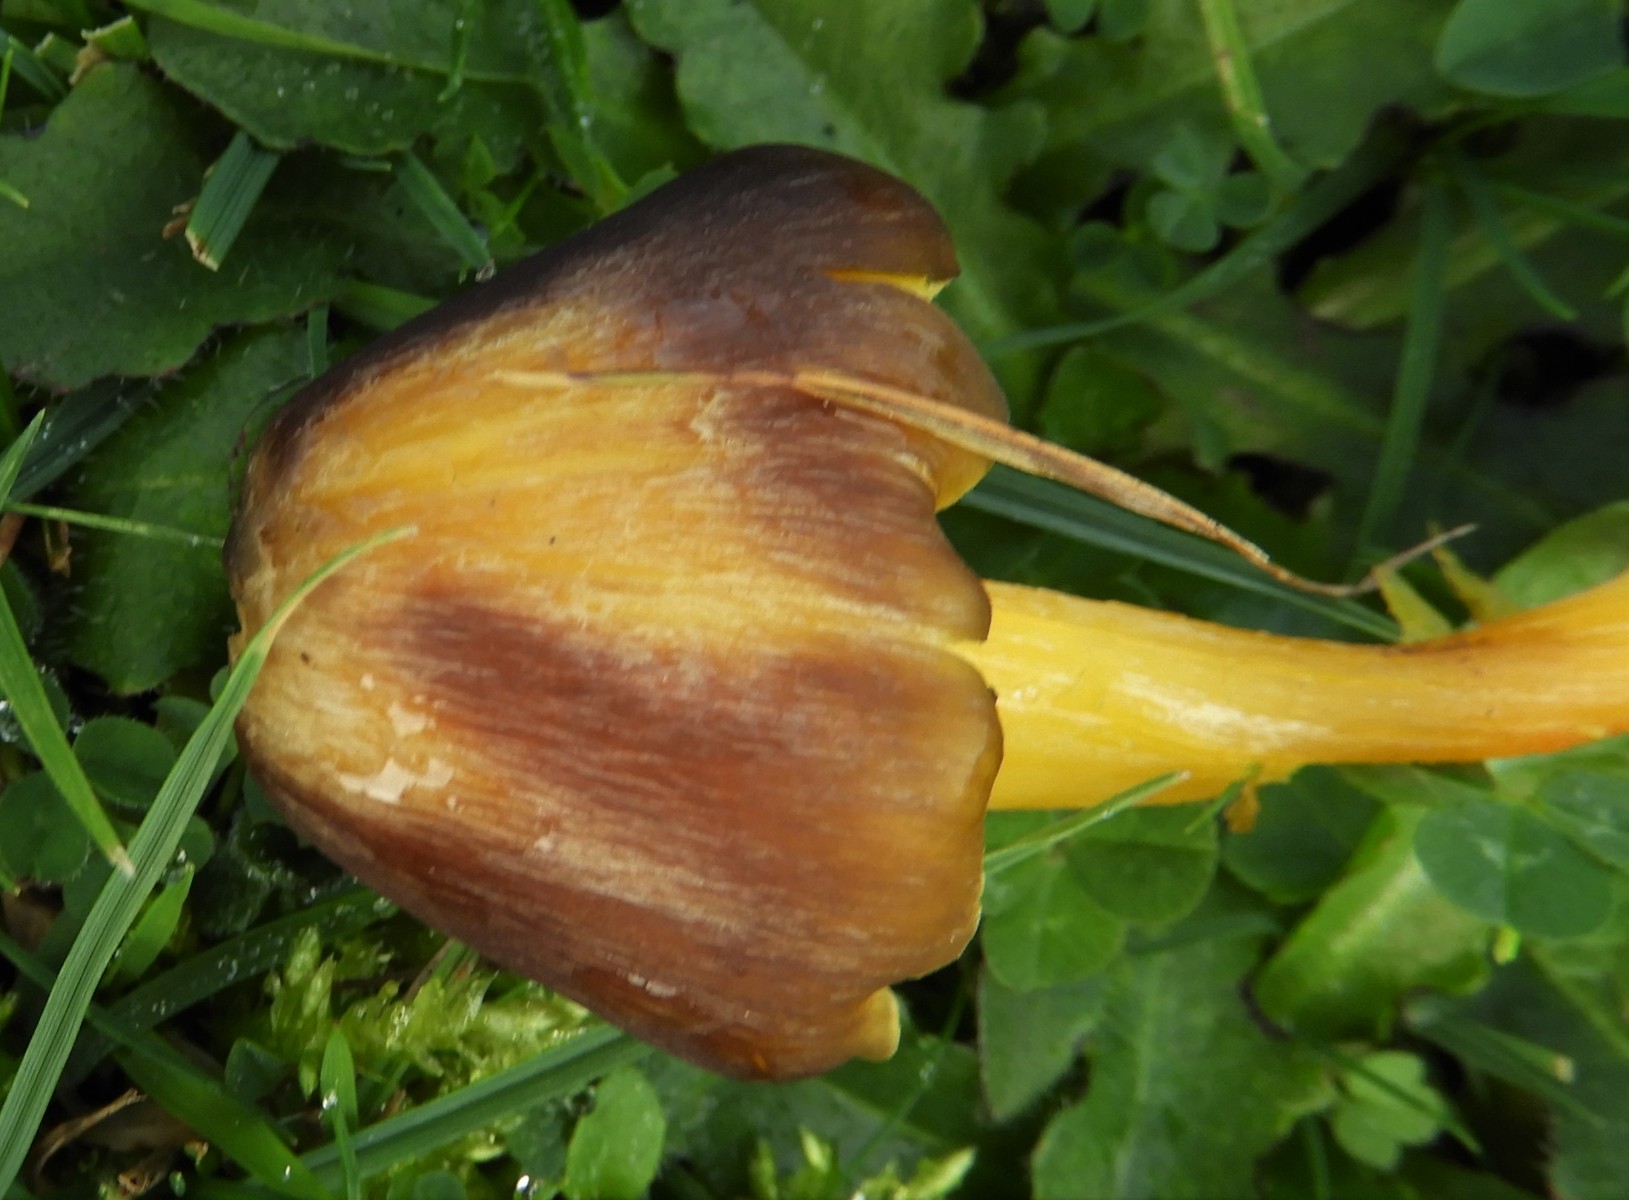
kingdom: Fungi
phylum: Basidiomycota
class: Agaricomycetes
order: Agaricales
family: Hygrophoraceae
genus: Hygrocybe
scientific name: Hygrocybe spadicea
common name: daddelbrun vokshat
